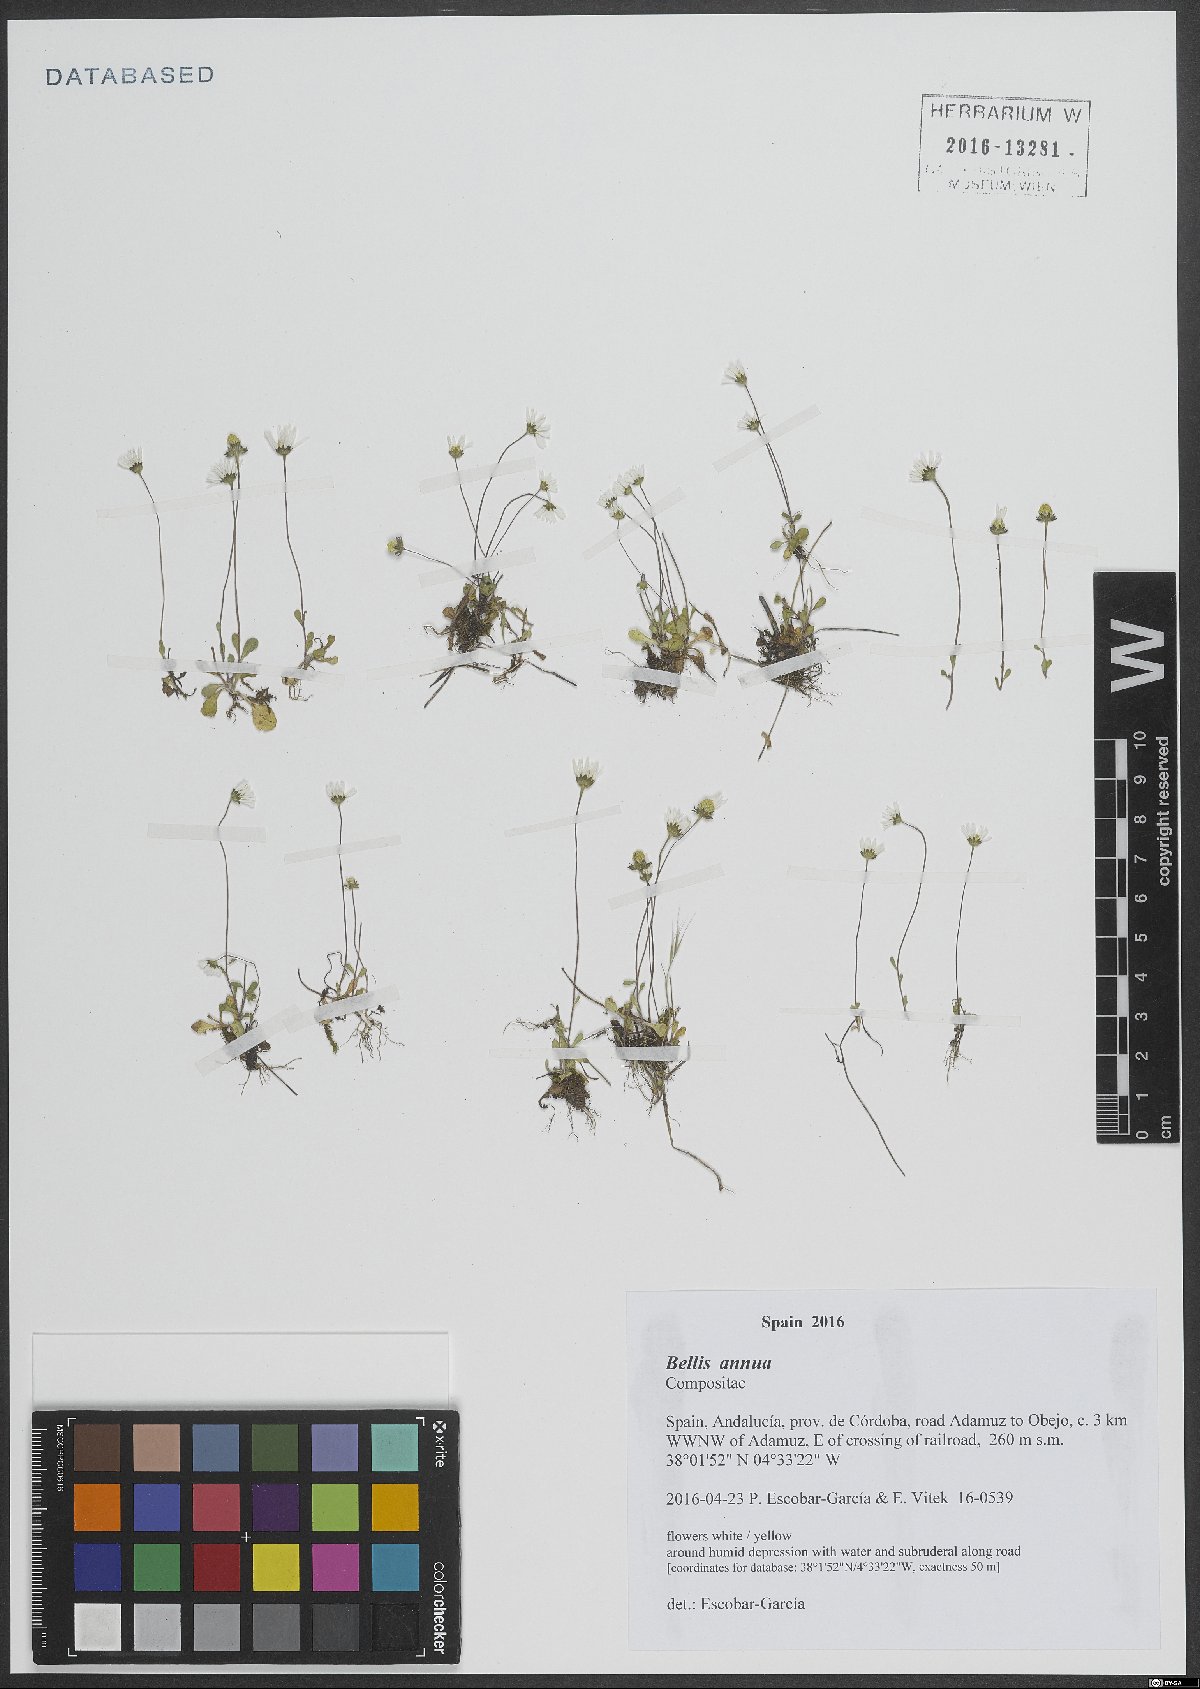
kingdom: Plantae
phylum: Tracheophyta
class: Magnoliopsida
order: Asterales
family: Asteraceae
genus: Bellis
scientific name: Bellis annua
